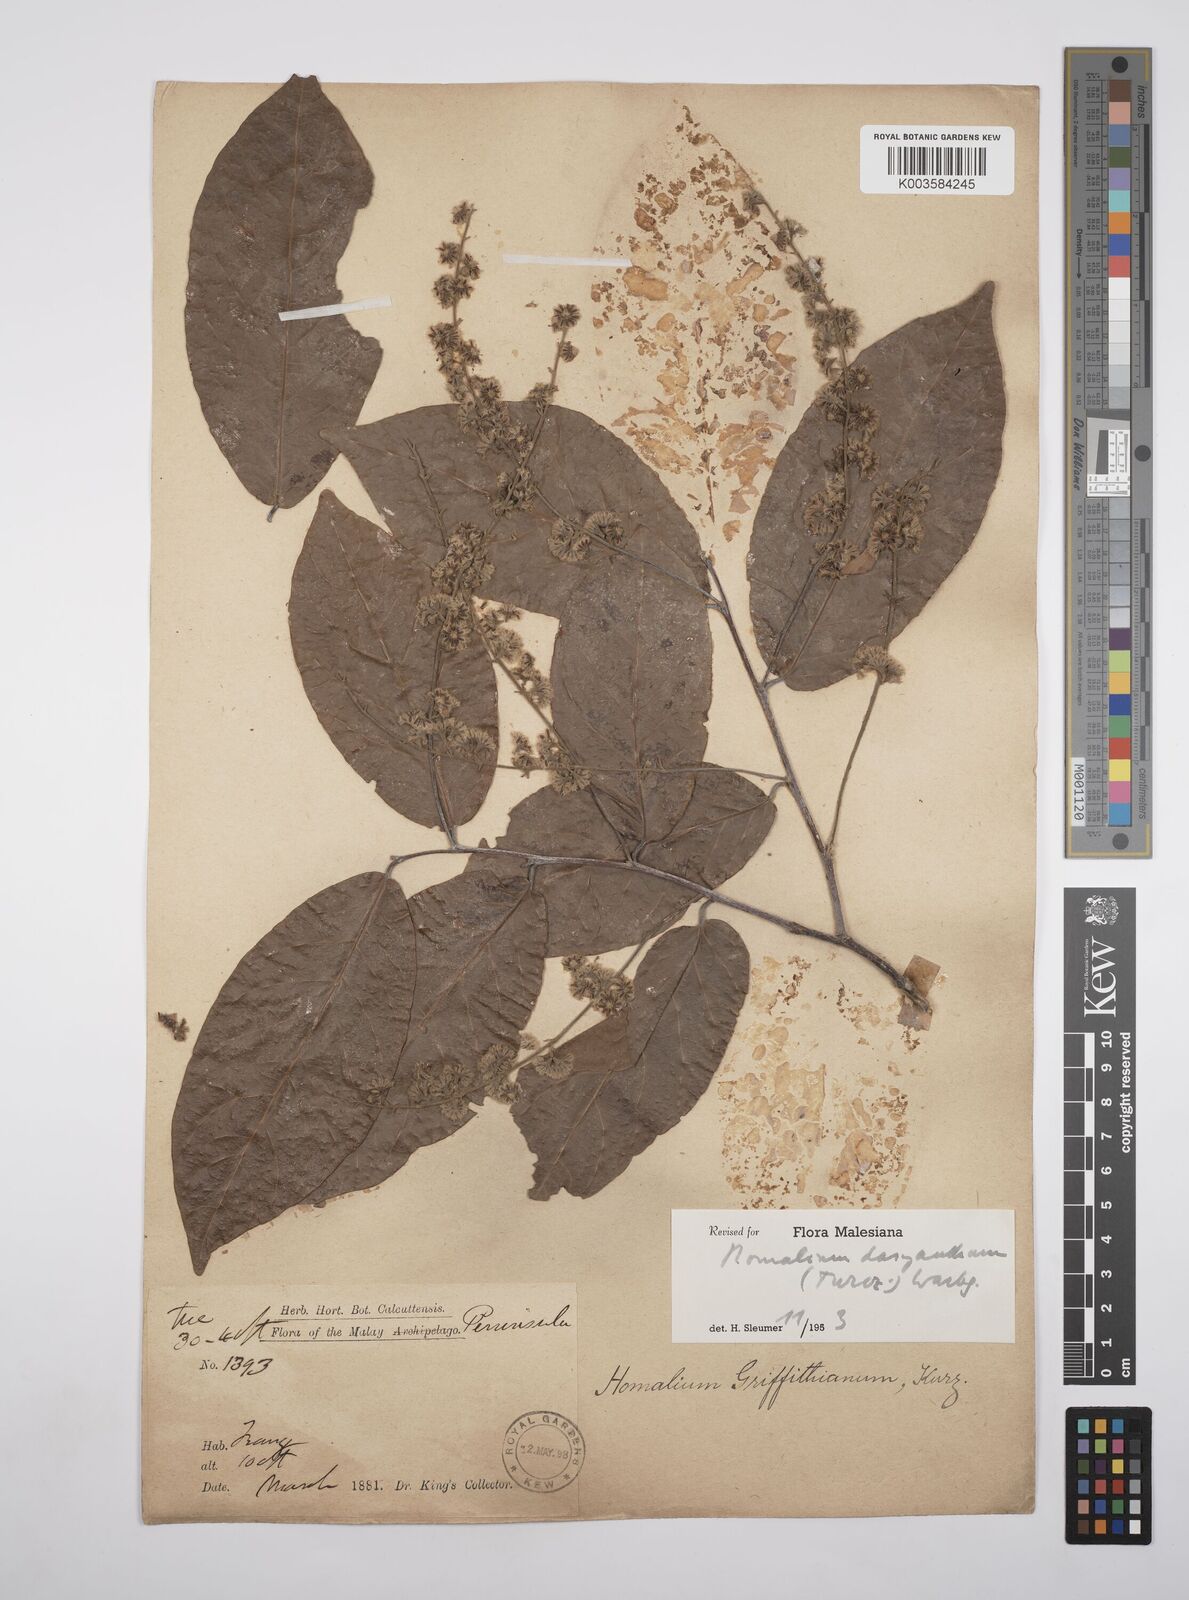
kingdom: Plantae
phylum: Tracheophyta
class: Magnoliopsida
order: Malpighiales
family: Salicaceae
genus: Homalium
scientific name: Homalium dasyanthum
